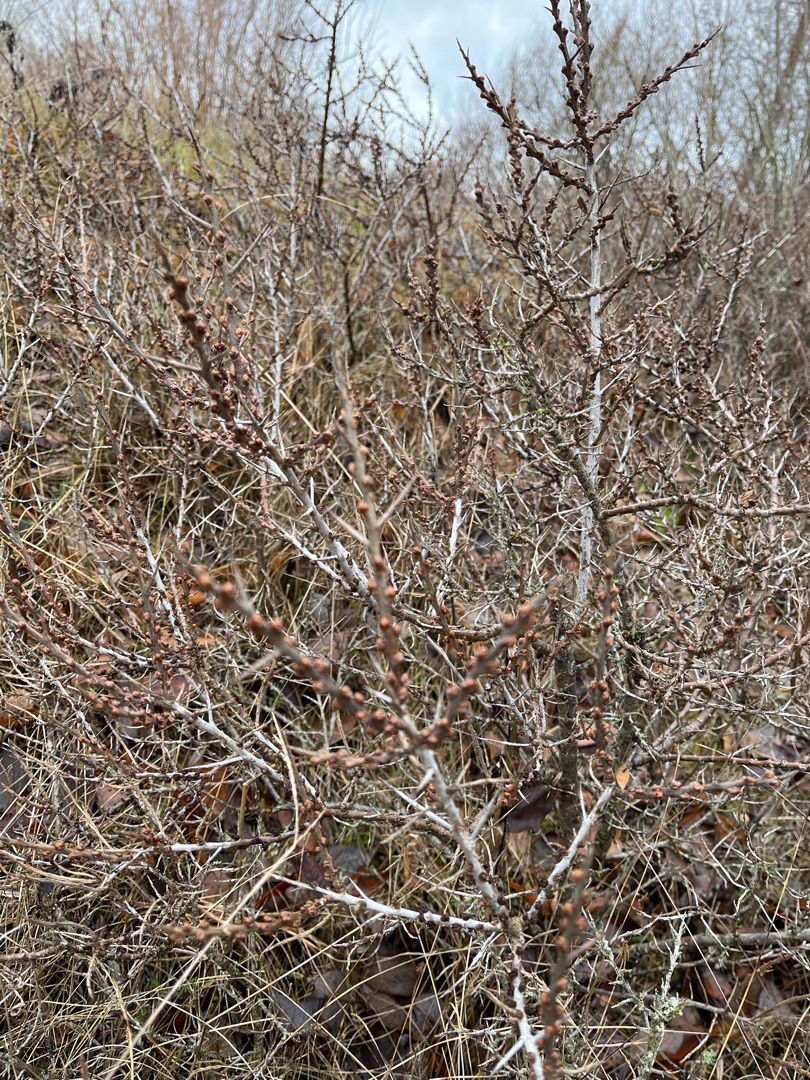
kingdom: Plantae
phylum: Tracheophyta
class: Magnoliopsida
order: Rosales
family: Elaeagnaceae
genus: Hippophae
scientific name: Hippophae rhamnoides
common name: Havtorn
